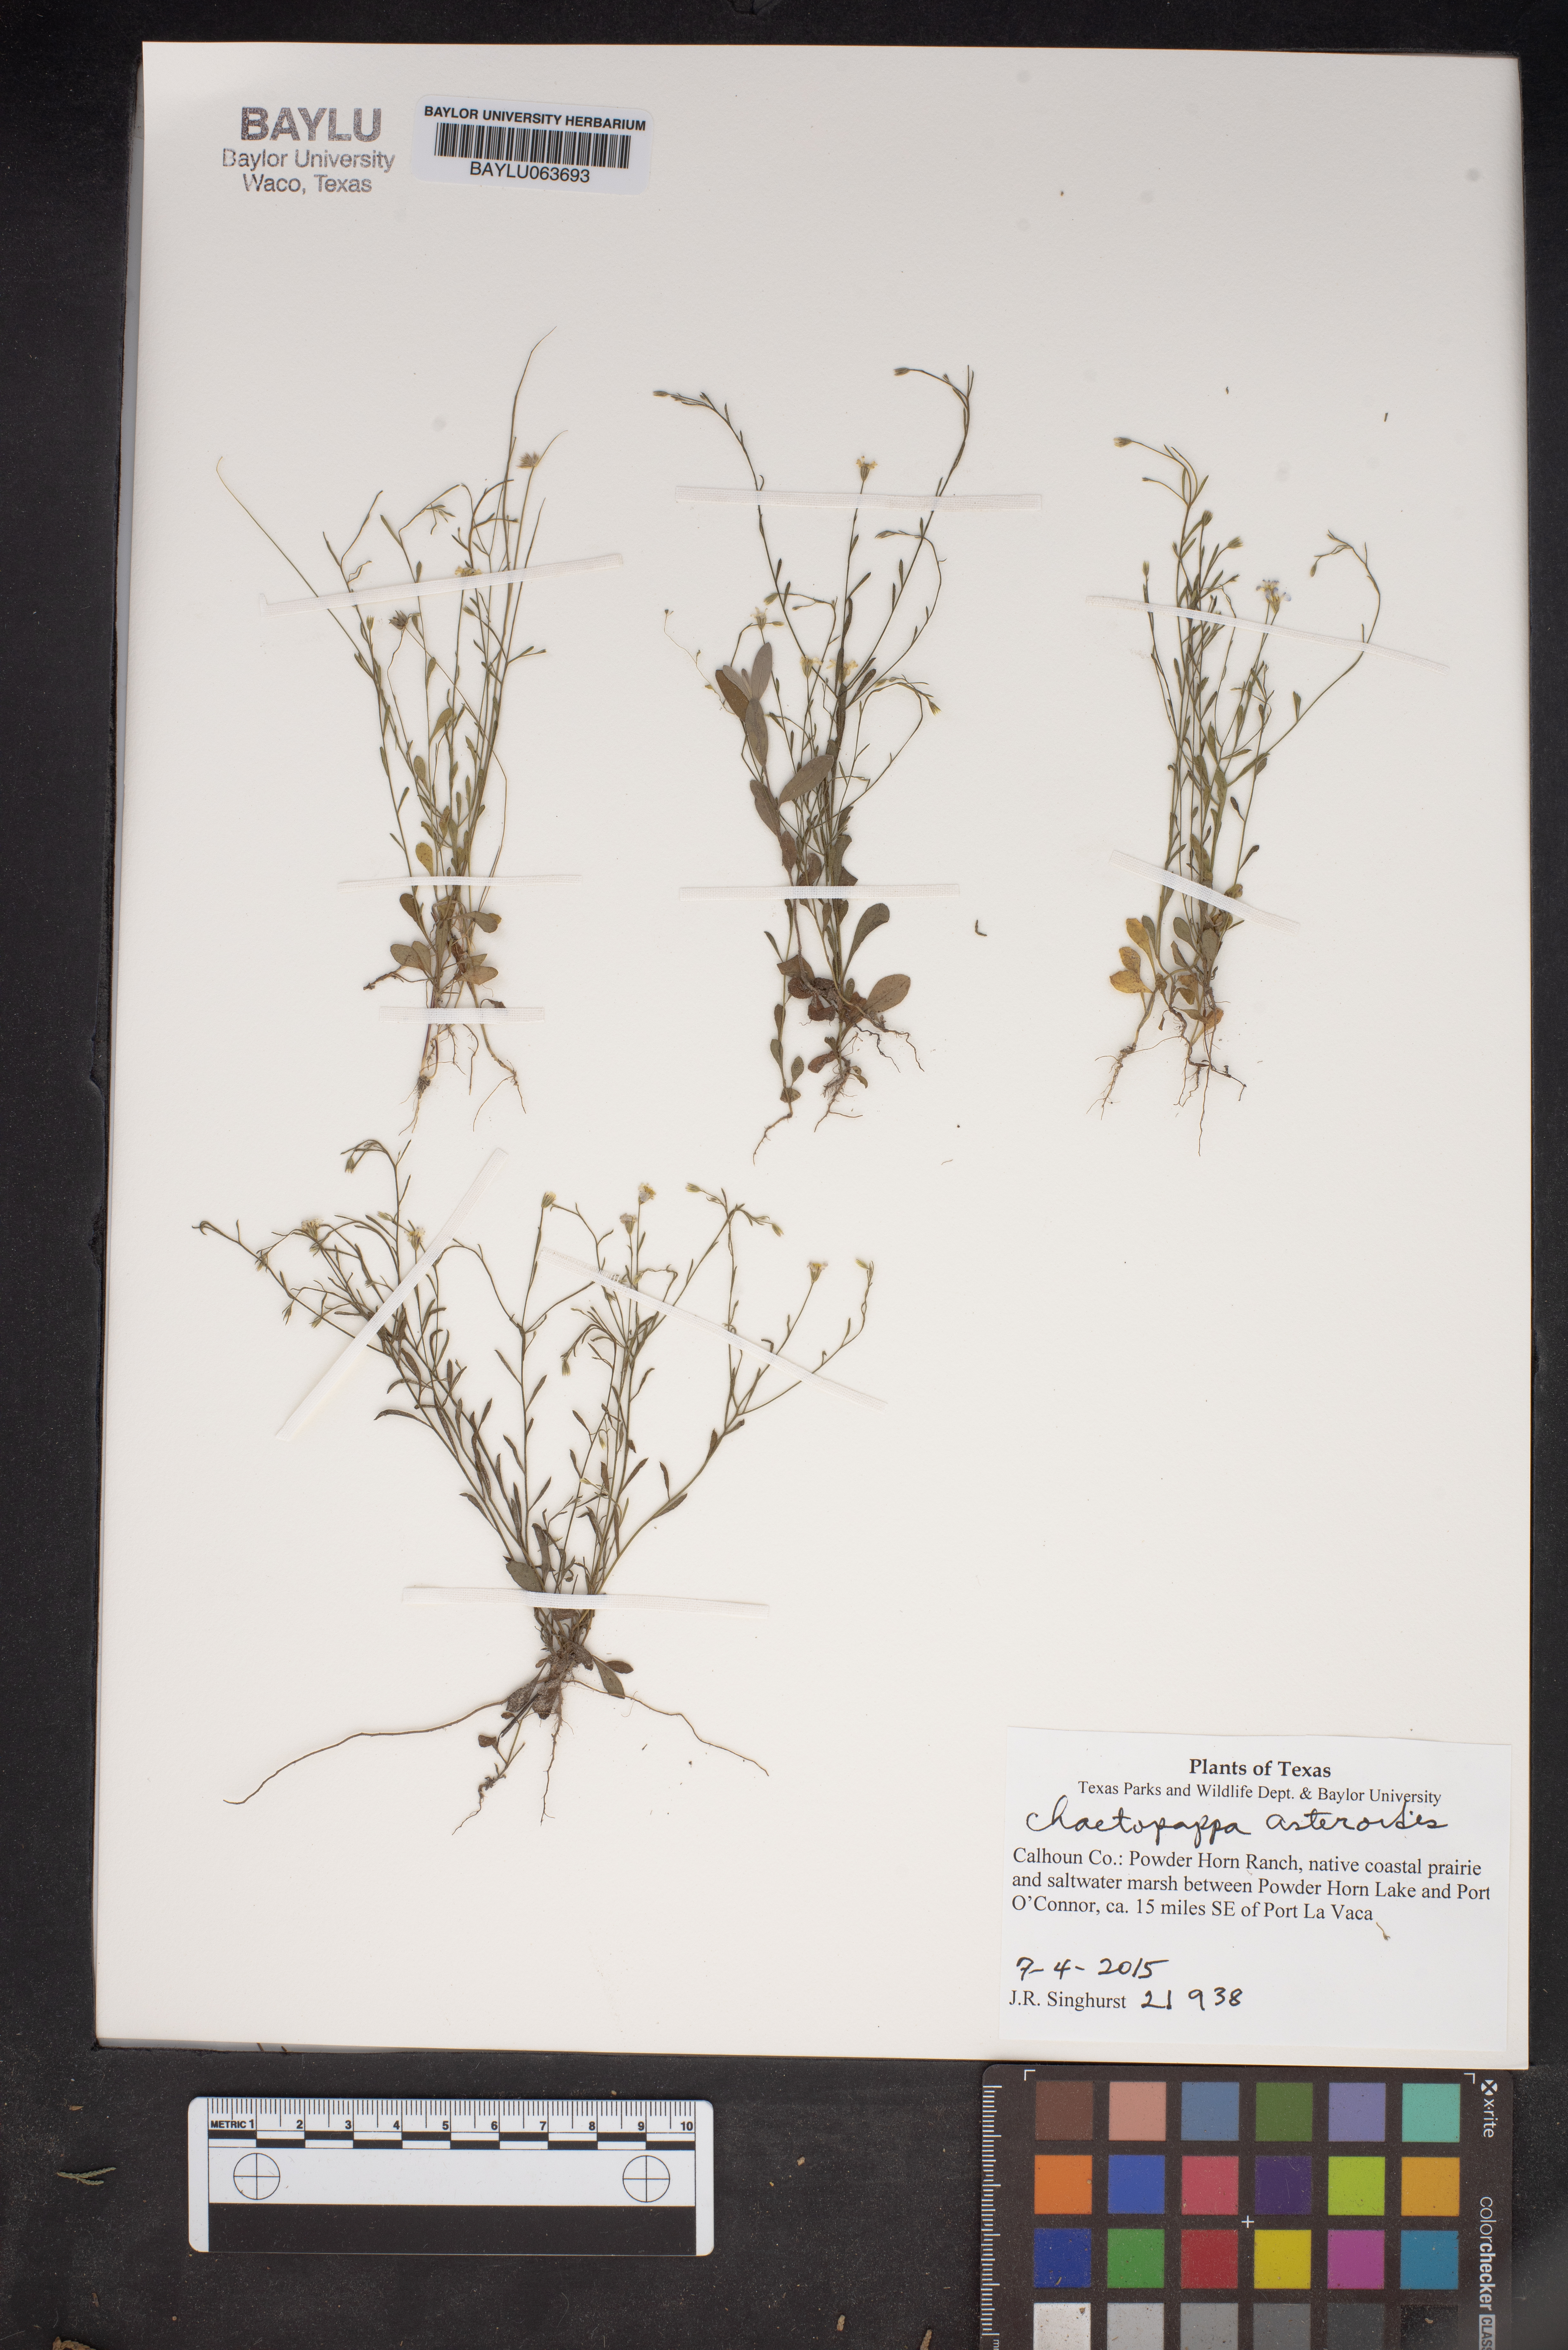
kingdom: Plantae
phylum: Tracheophyta
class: Magnoliopsida
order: Asterales
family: Asteraceae
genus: Chaetopappa
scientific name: Chaetopappa asteroides
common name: Tiny lazy daisy
